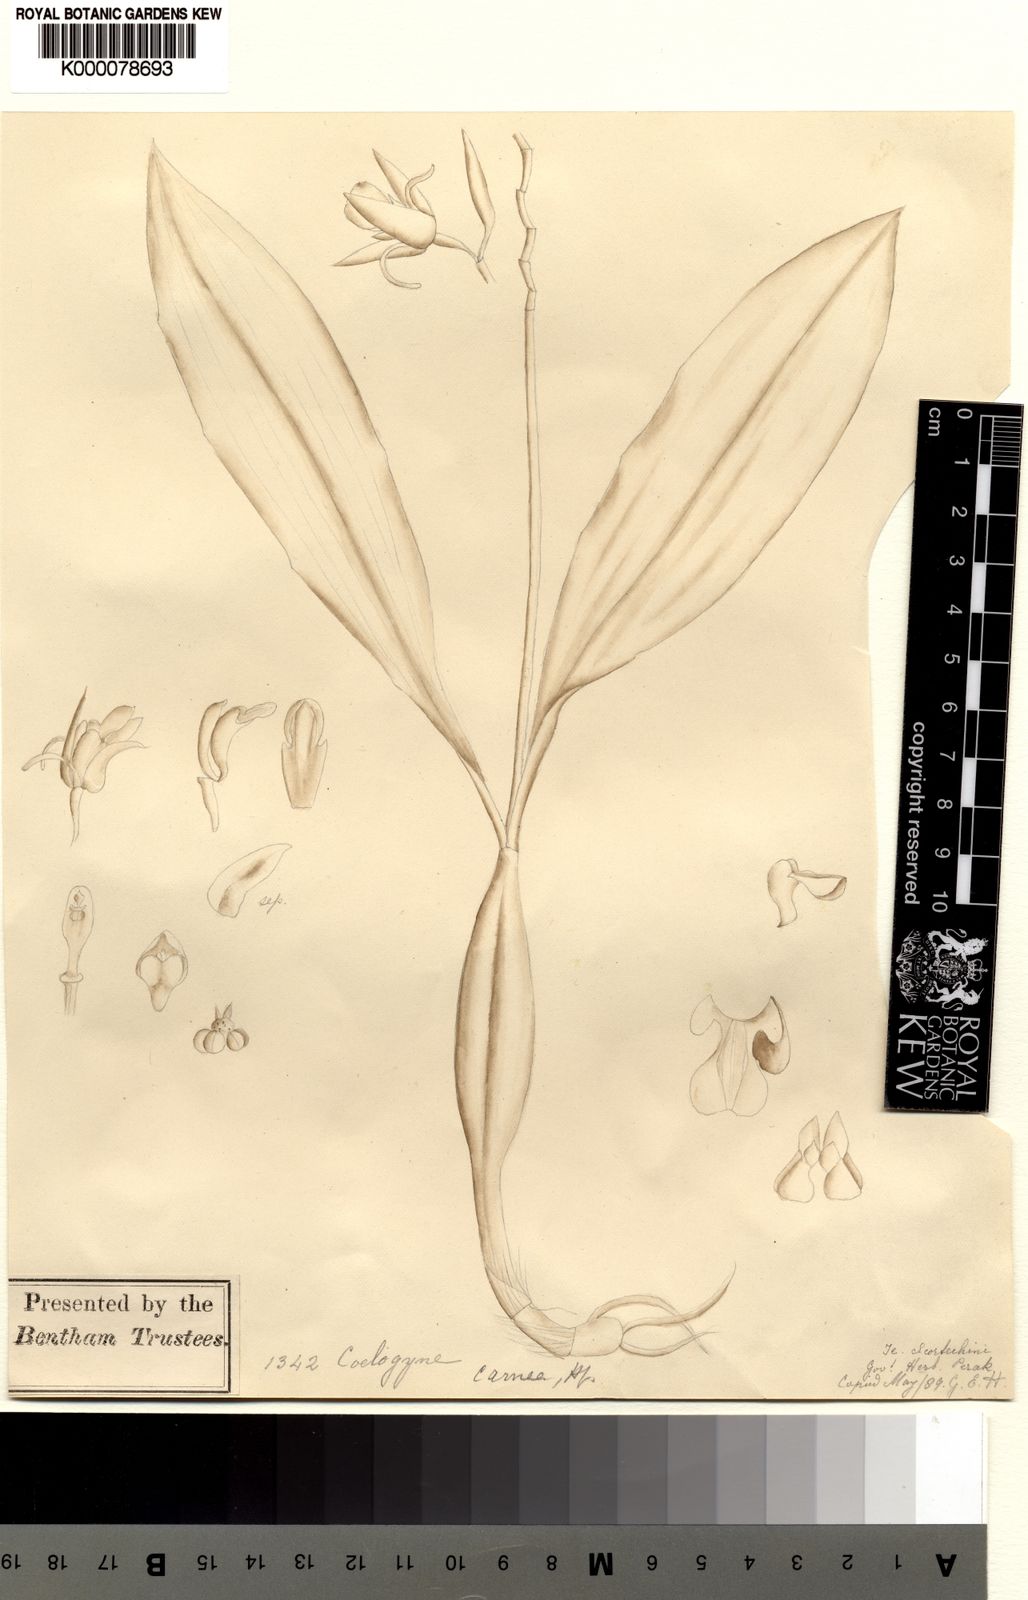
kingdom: Plantae
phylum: Tracheophyta
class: Liliopsida
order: Asparagales
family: Orchidaceae
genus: Coelogyne
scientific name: Coelogyne radicosa
